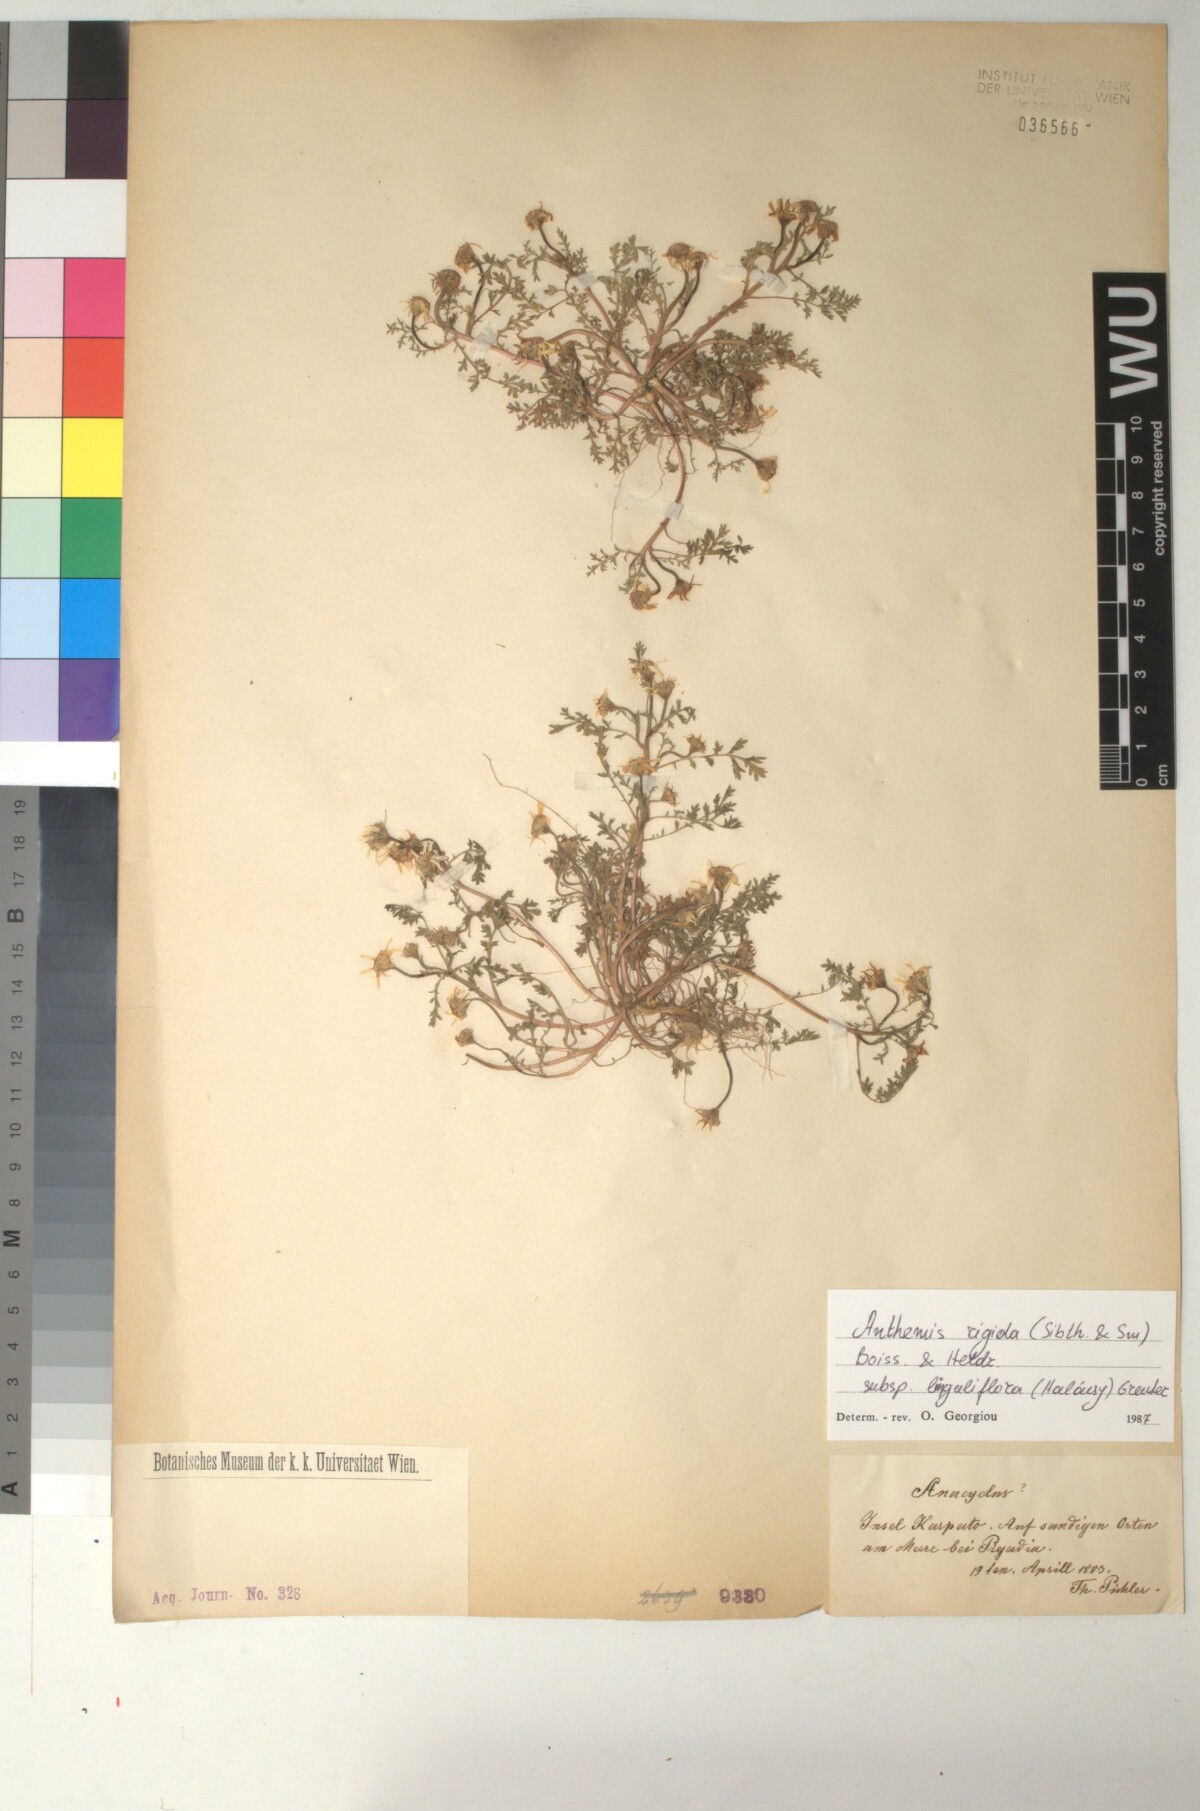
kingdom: Plantae
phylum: Tracheophyta
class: Magnoliopsida
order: Asterales
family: Asteraceae
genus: Anthemis
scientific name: Anthemis rigida
